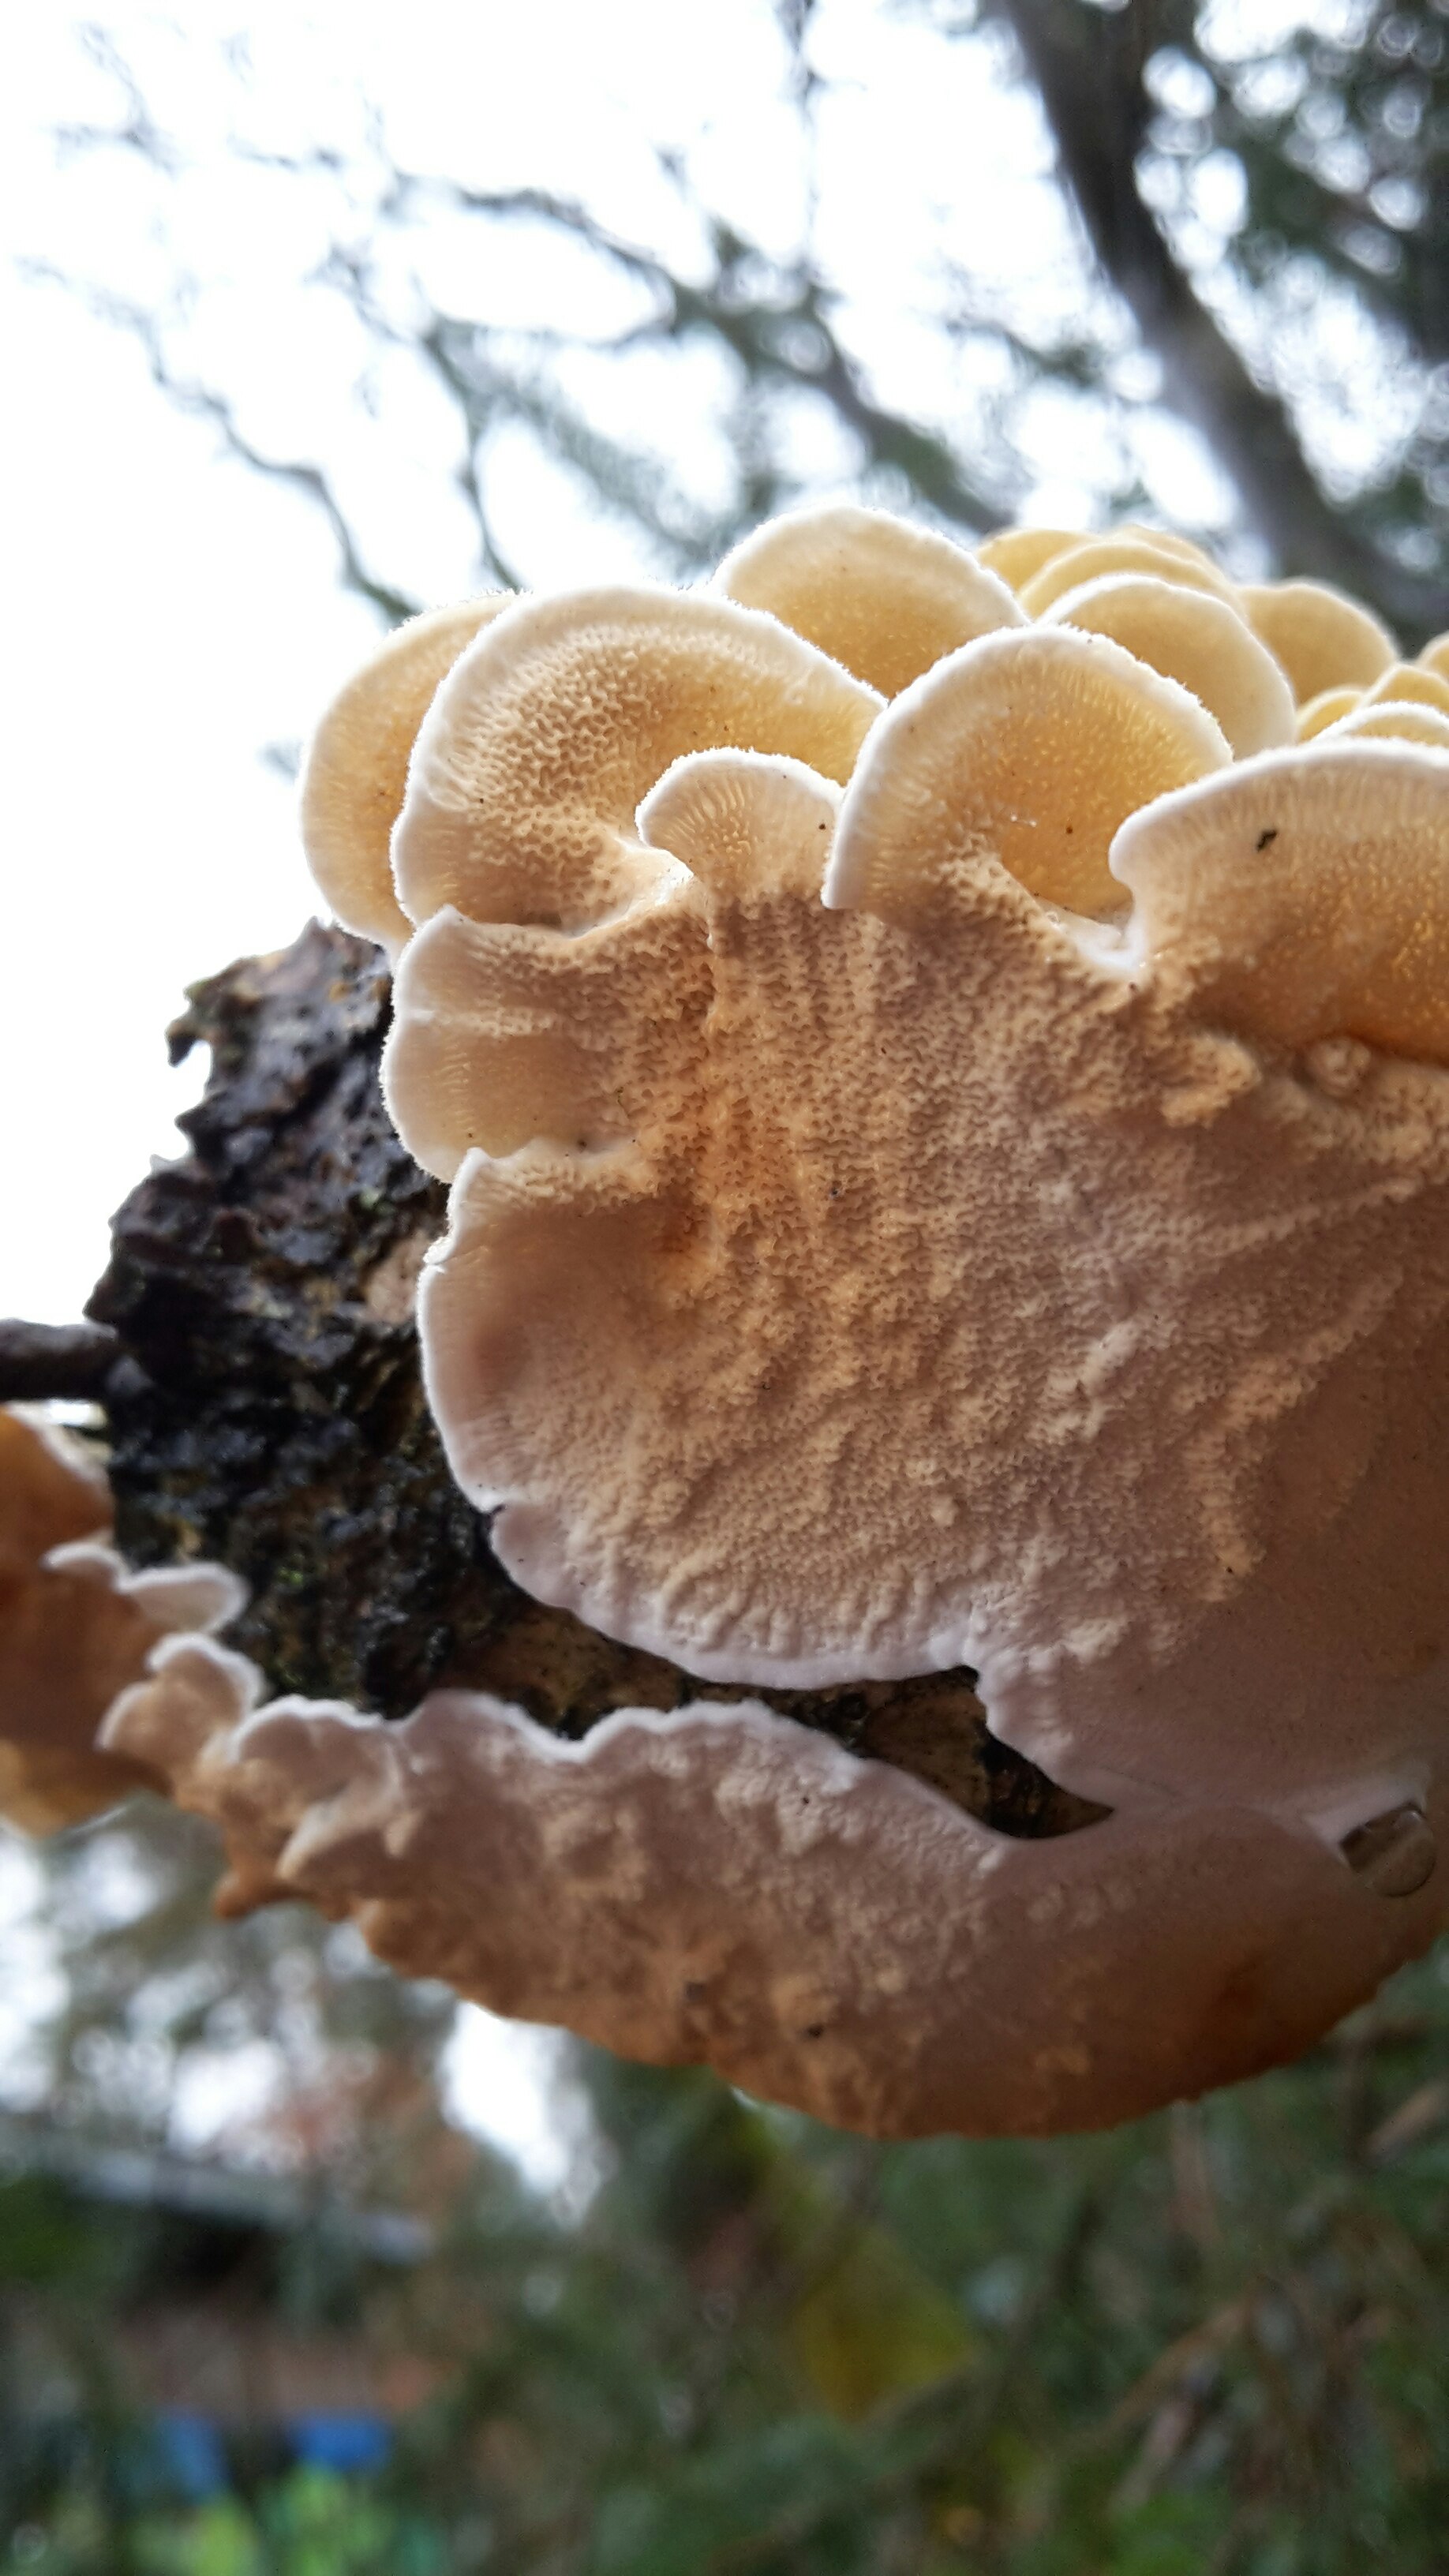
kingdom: Fungi
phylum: Basidiomycota
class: Agaricomycetes
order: Polyporales
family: Irpicaceae
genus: Byssomerulius
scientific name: Byssomerulius corium
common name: læder-åresvamp
